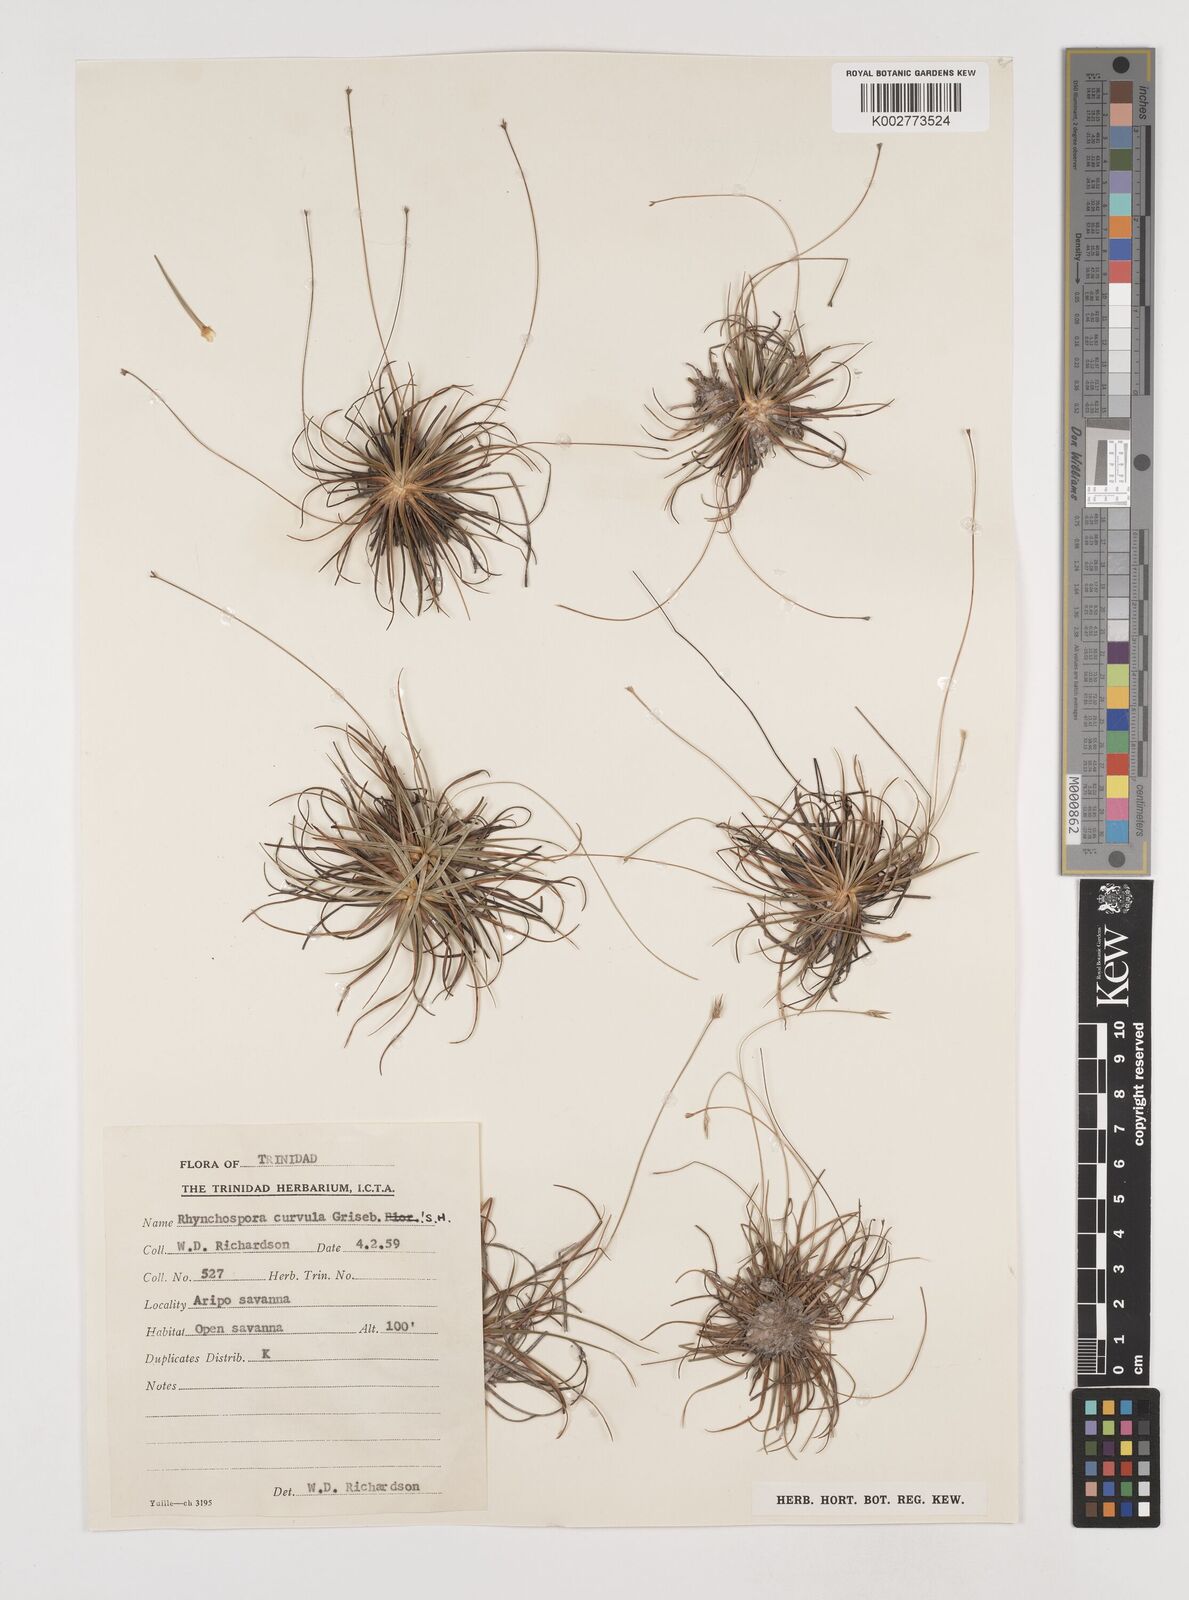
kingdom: Plantae
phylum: Tracheophyta
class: Liliopsida
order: Poales
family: Cyperaceae
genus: Rhynchospora
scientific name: Rhynchospora tenuis
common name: Quill beaksedge
